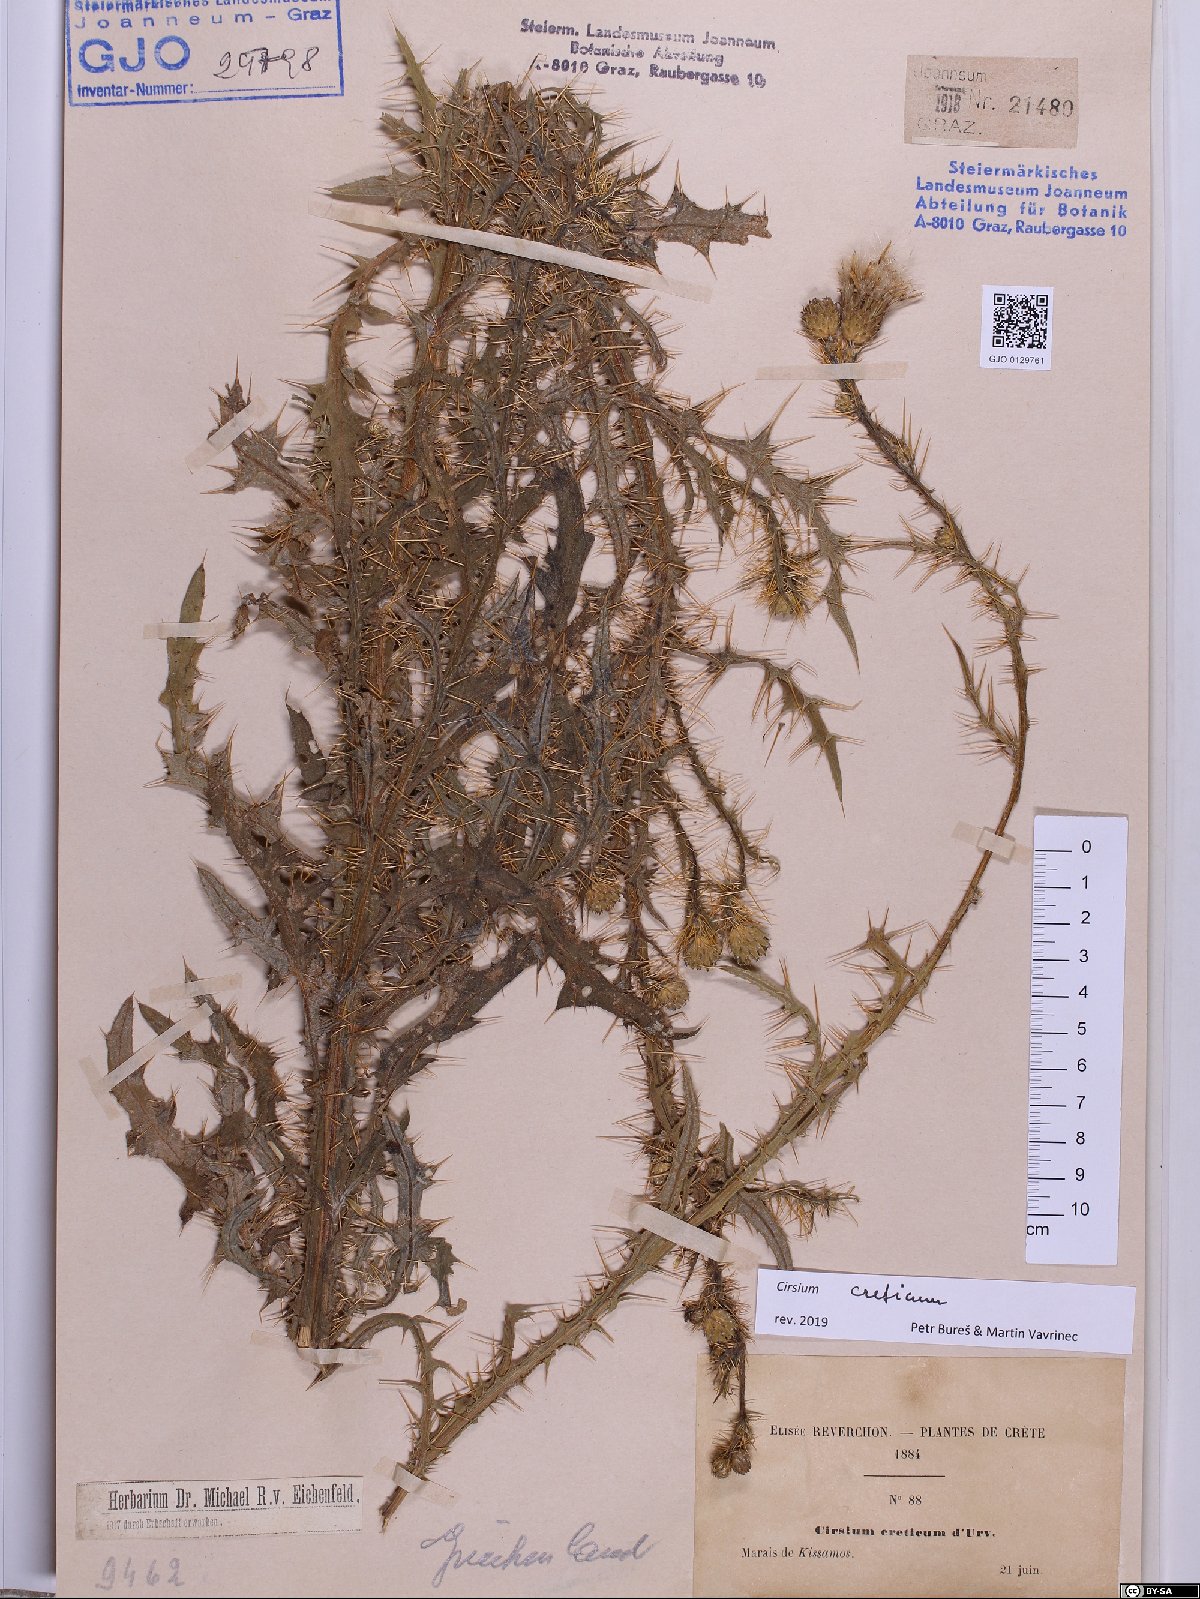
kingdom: Plantae
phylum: Tracheophyta
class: Magnoliopsida
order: Asterales
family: Asteraceae
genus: Cirsium
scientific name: Cirsium creticum
